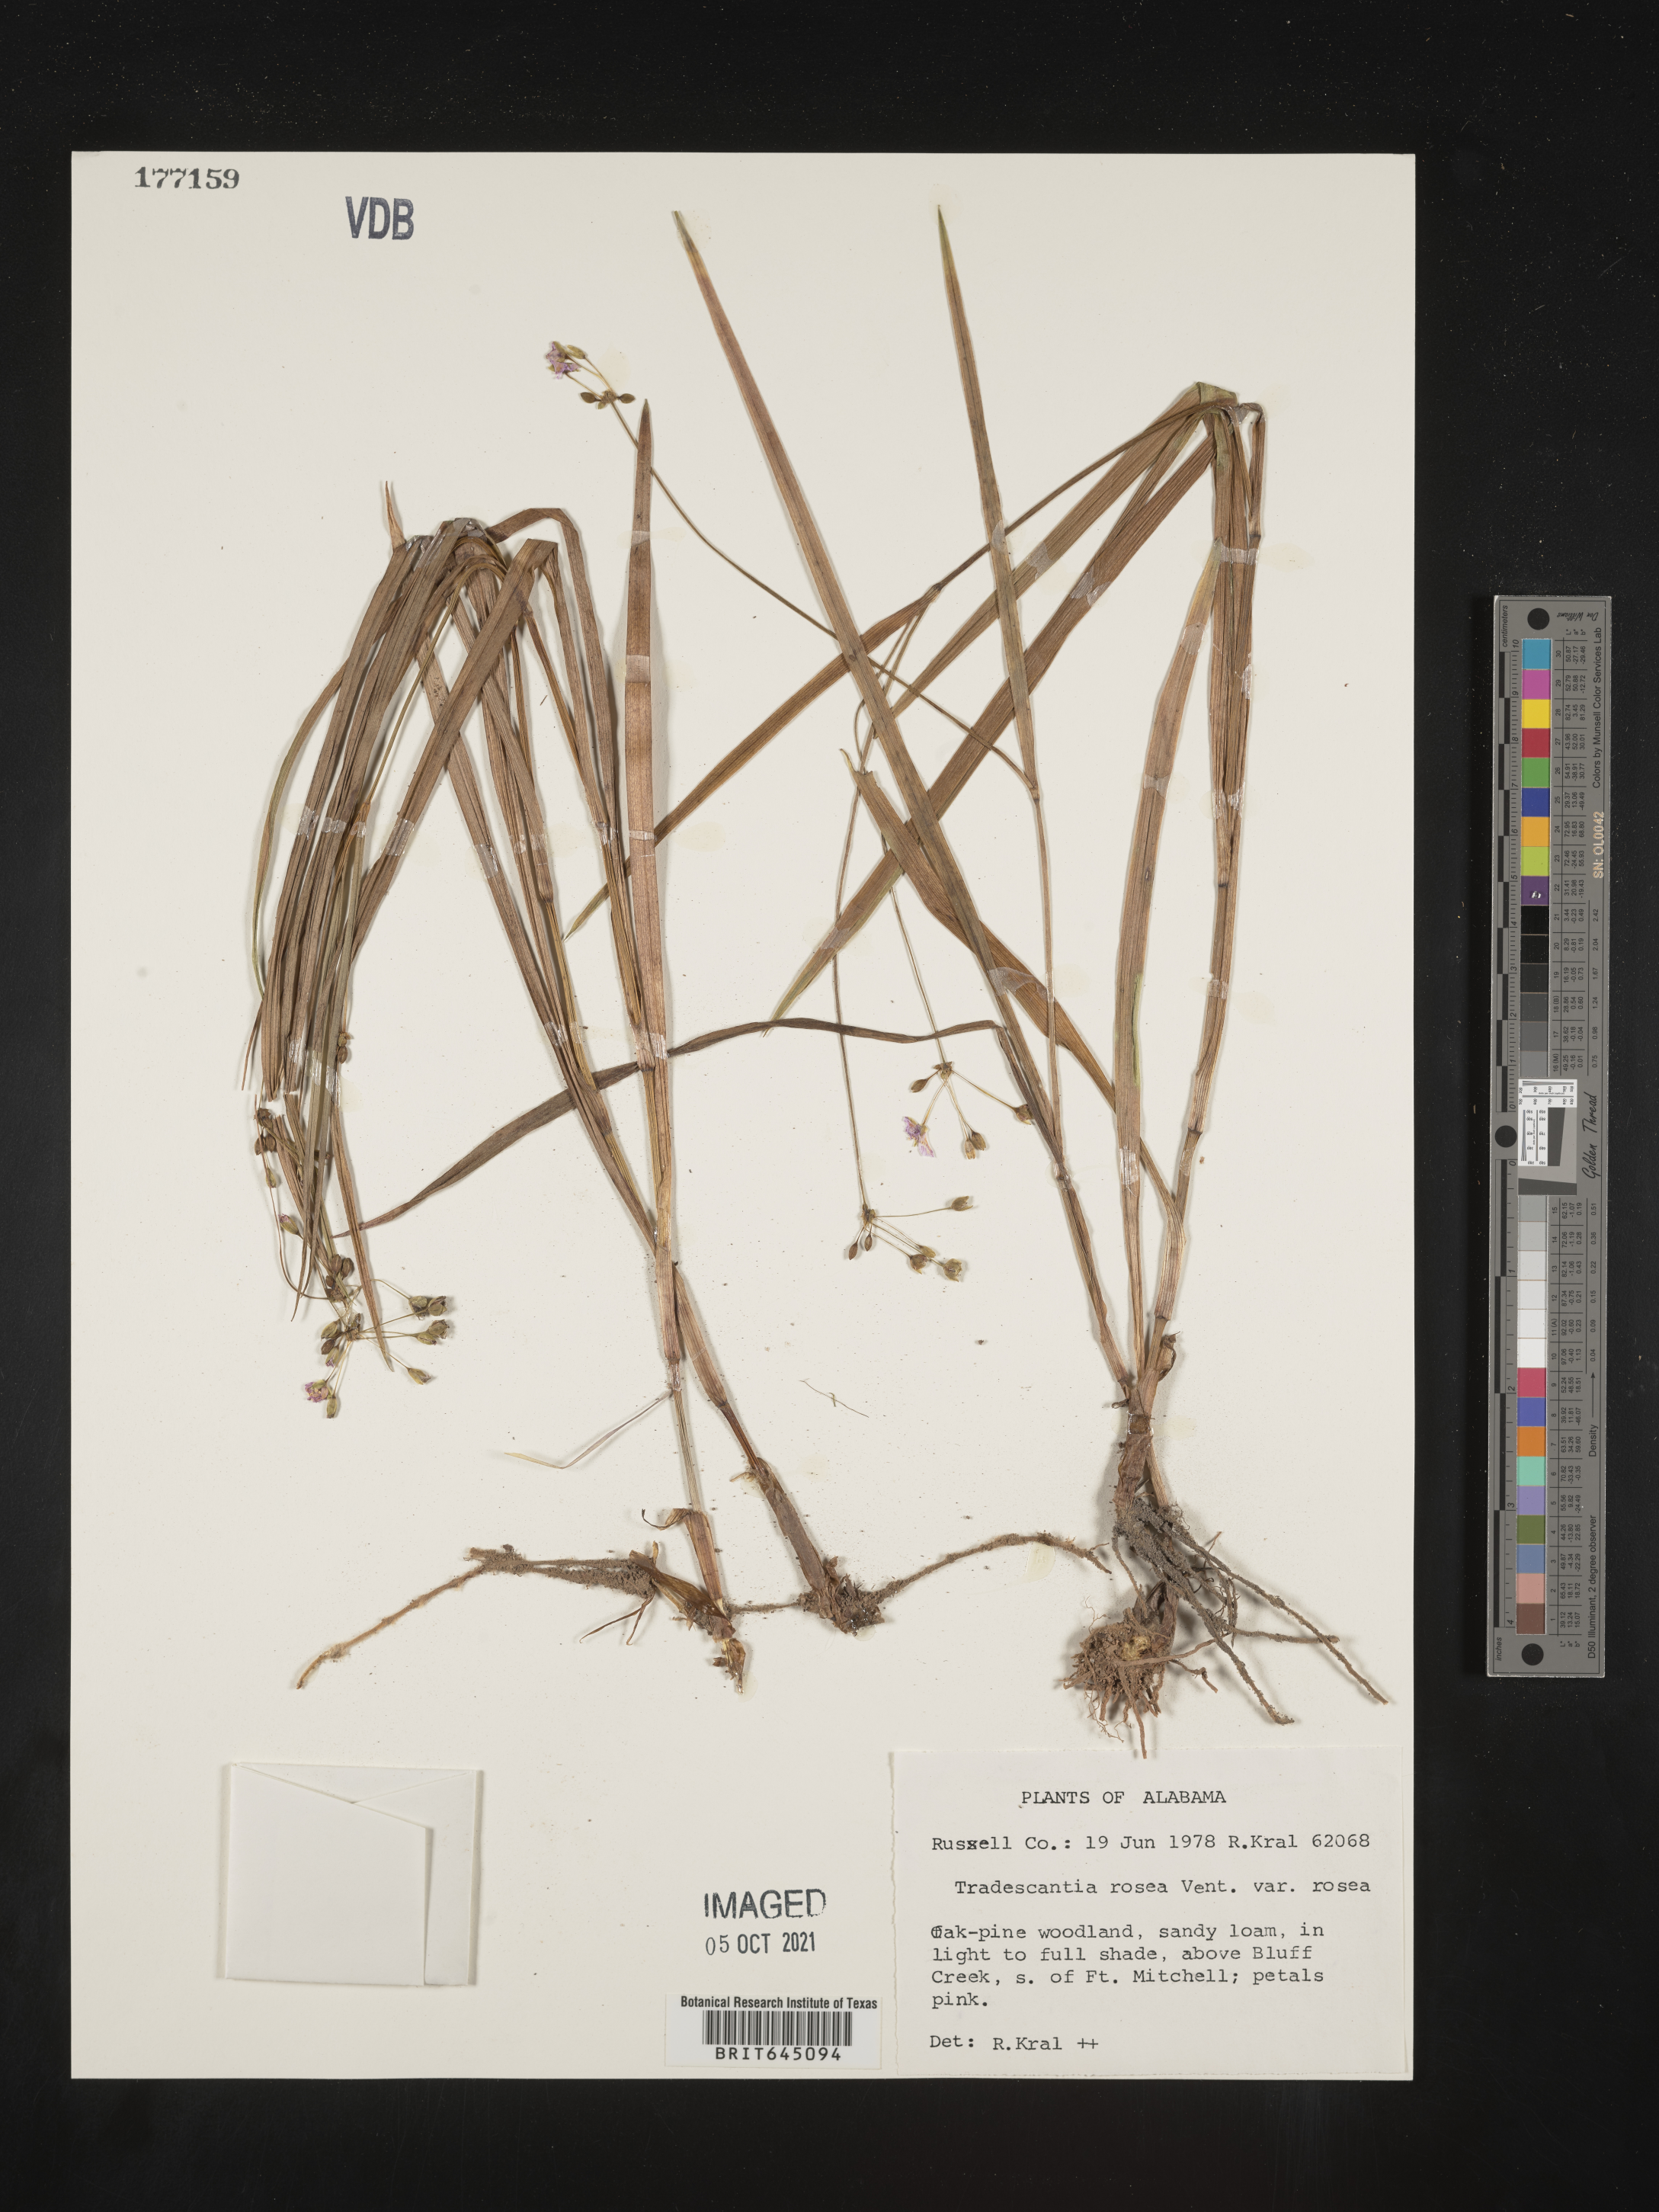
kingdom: Plantae
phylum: Tracheophyta
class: Liliopsida
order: Commelinales
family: Commelinaceae
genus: Callisia
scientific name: Callisia rosea
